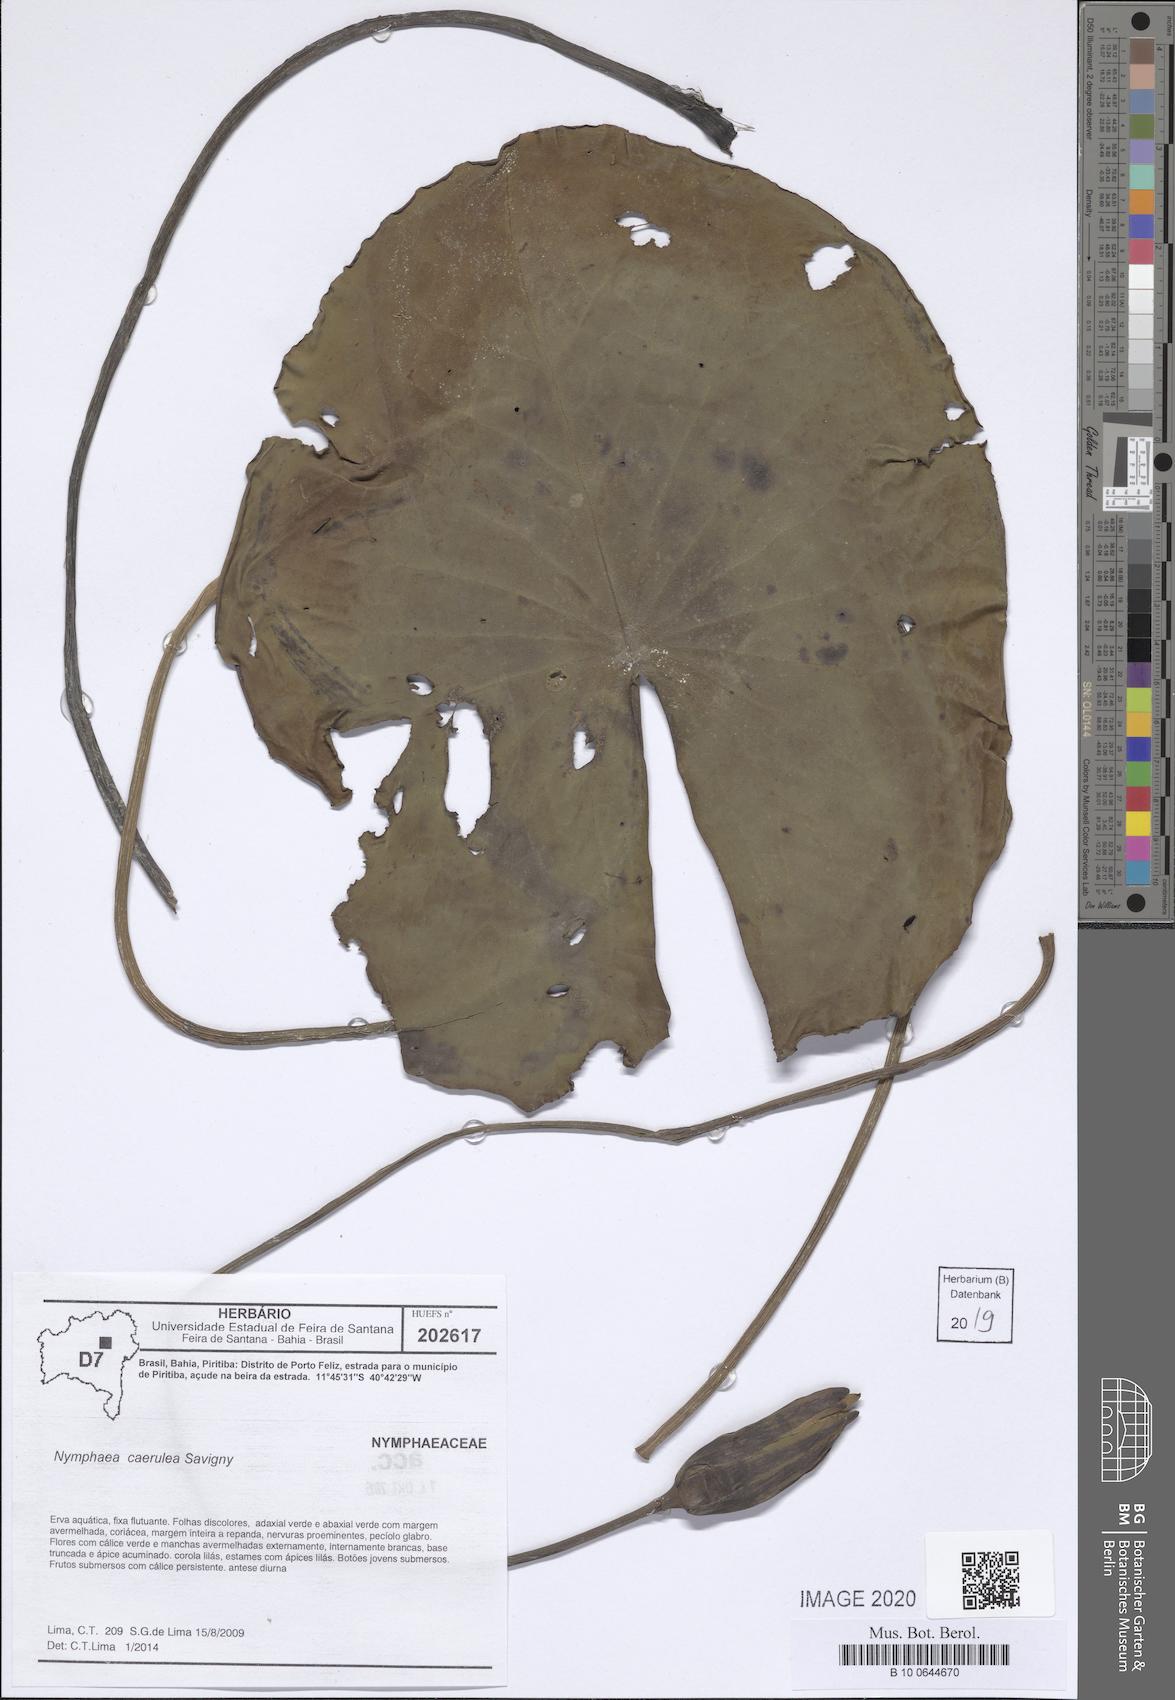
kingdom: Plantae
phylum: Tracheophyta
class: Magnoliopsida
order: Nymphaeales
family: Nymphaeaceae
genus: Nymphaea
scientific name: Nymphaea
